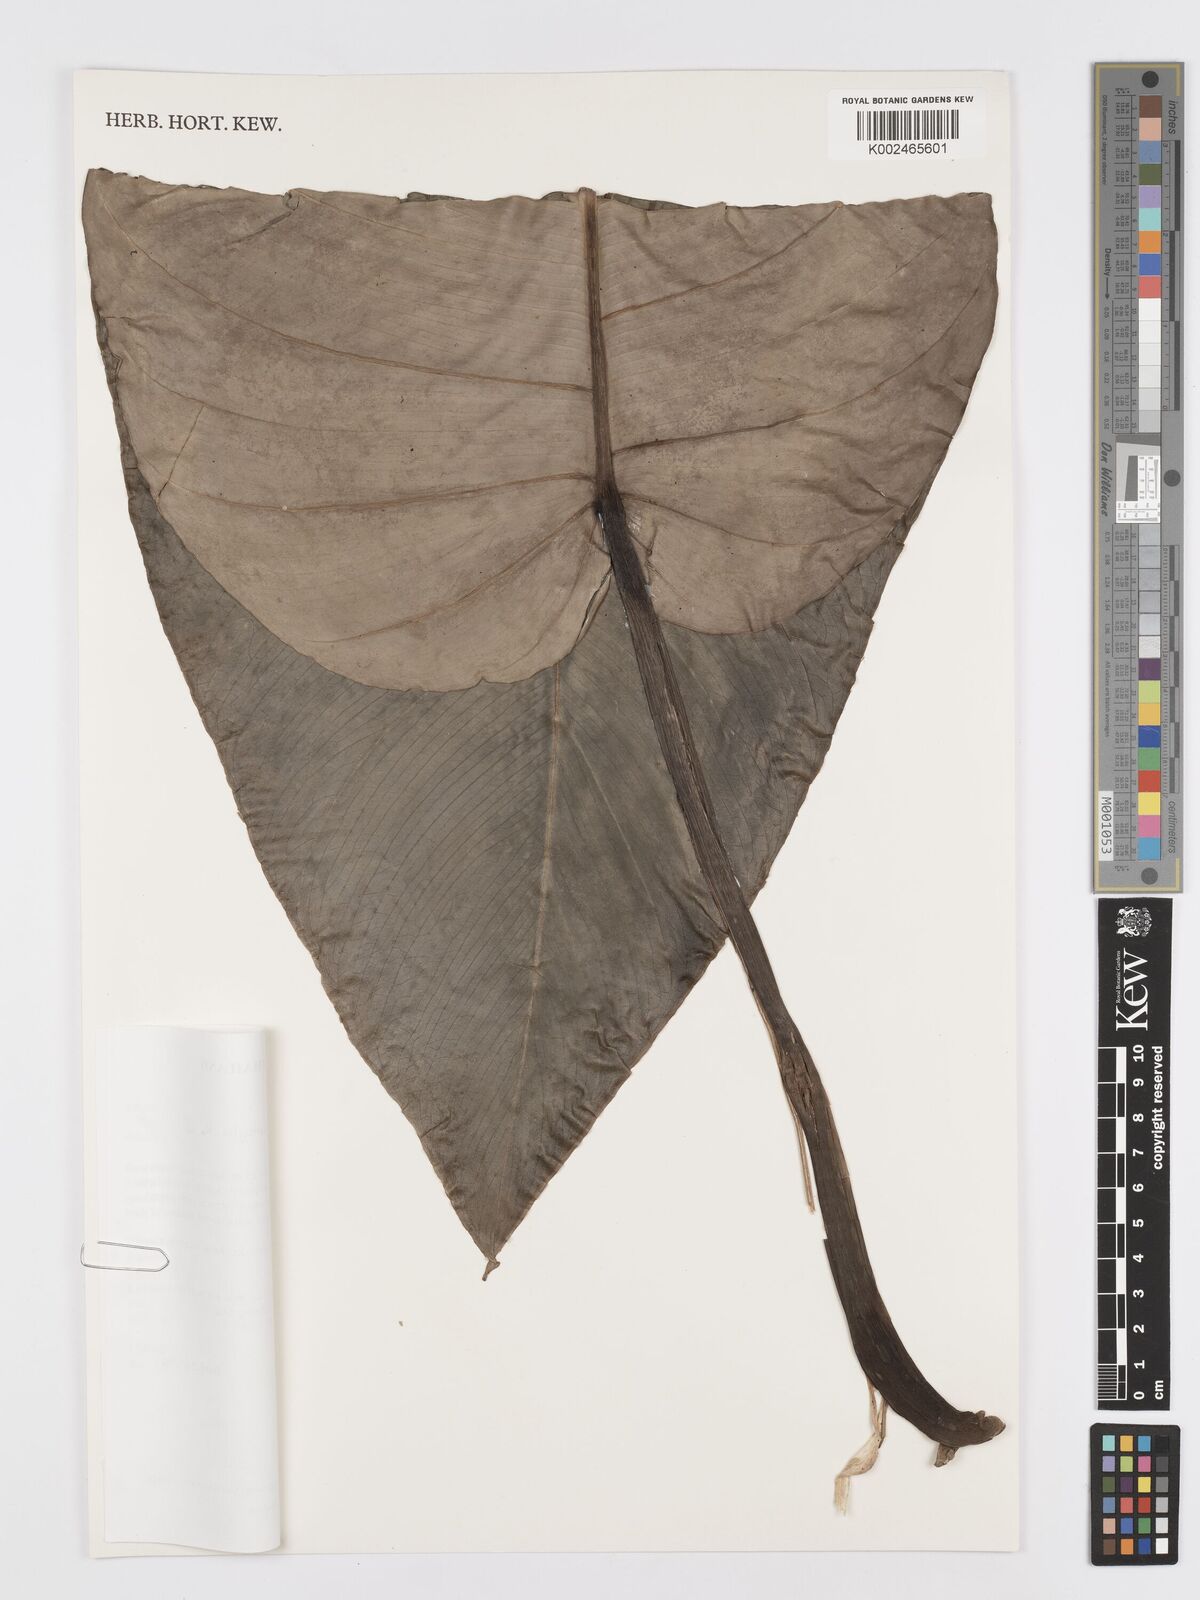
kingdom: Plantae
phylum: Tracheophyta
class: Liliopsida
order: Alismatales
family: Araceae
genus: Rhaphidophora
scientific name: Rhaphidophora megaphylla
